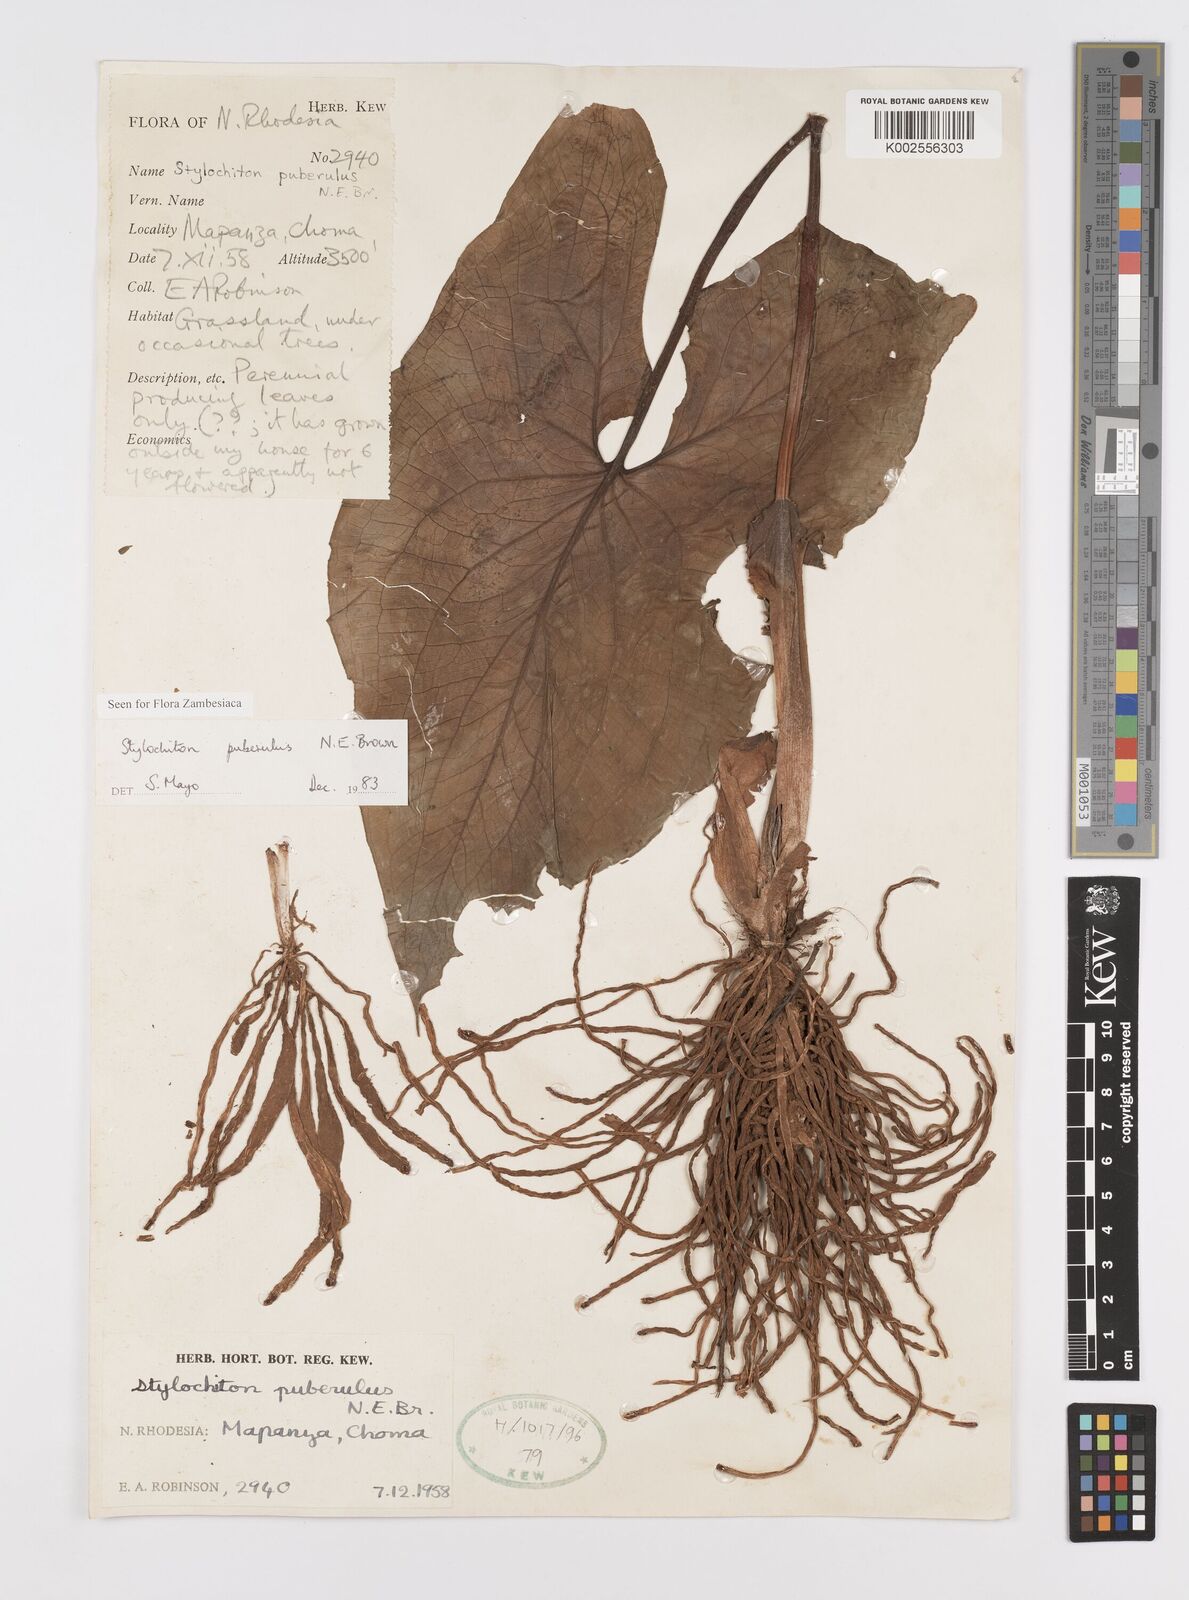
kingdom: Plantae
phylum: Tracheophyta
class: Liliopsida
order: Alismatales
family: Araceae
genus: Stylochaeton
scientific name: Stylochaeton puberulum
